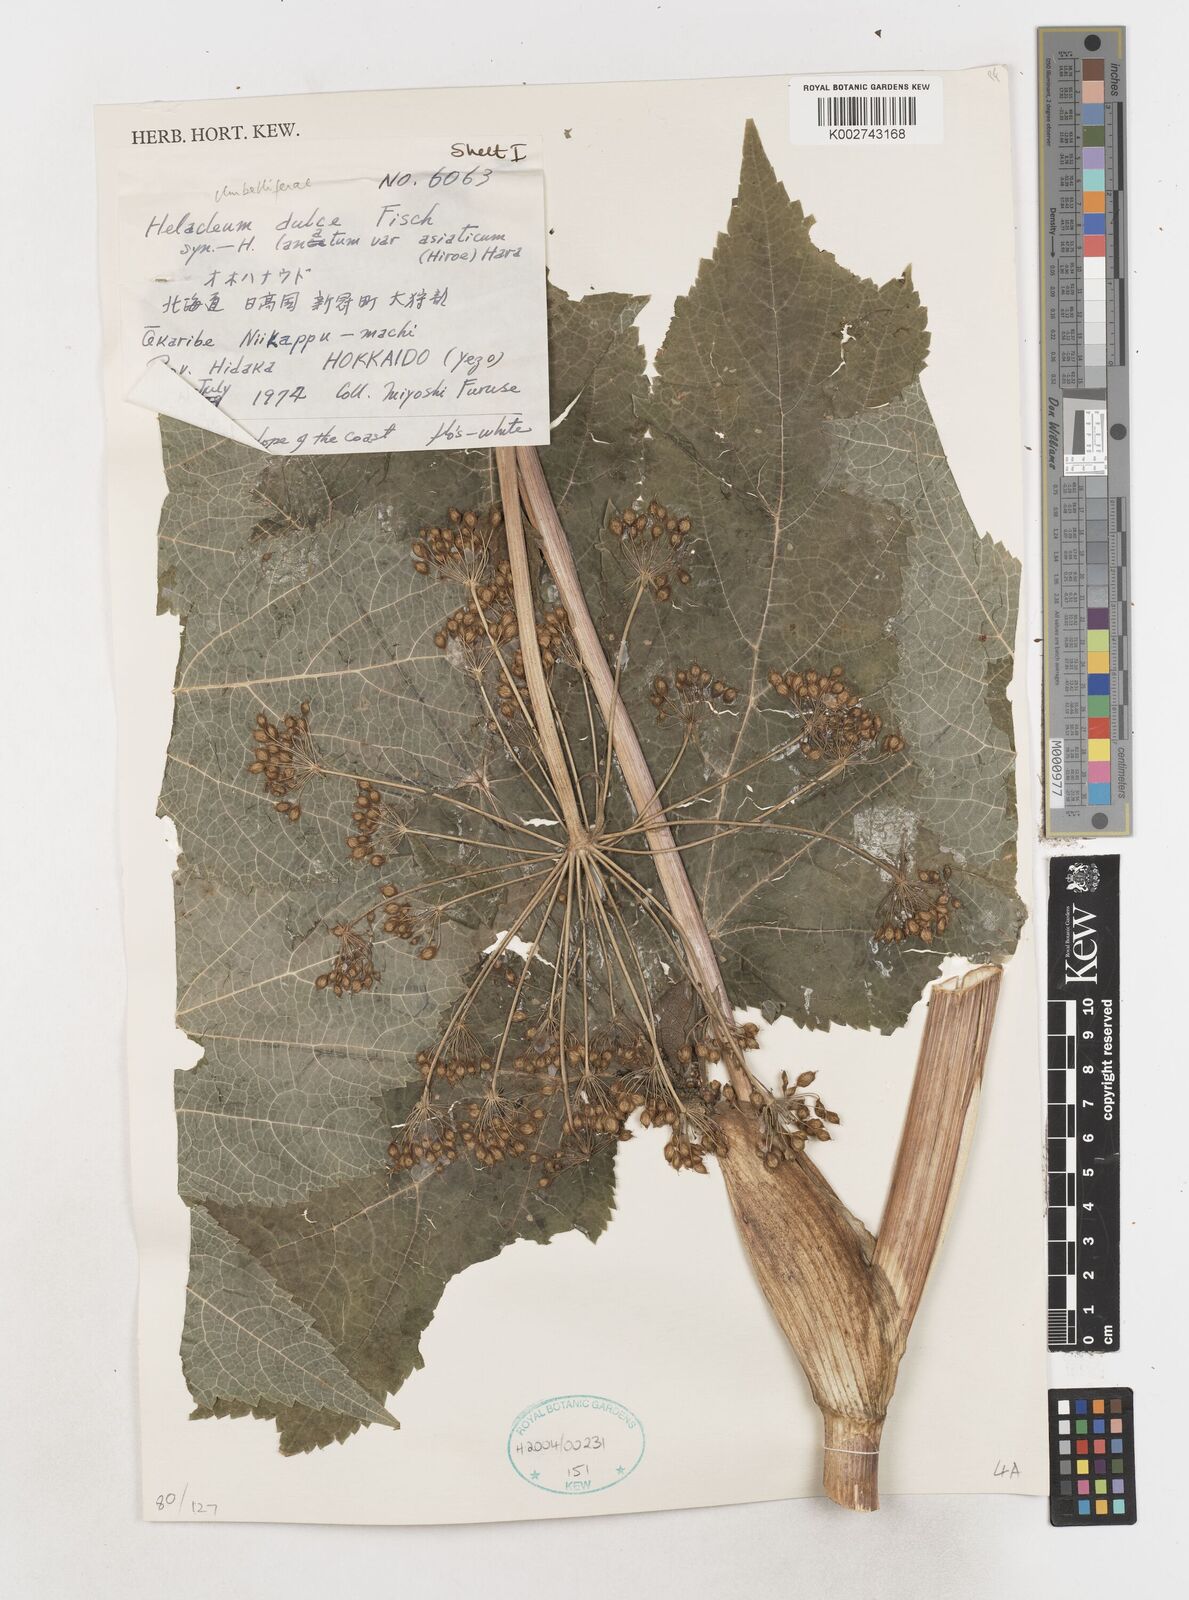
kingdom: Plantae
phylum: Tracheophyta
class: Magnoliopsida
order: Apiales
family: Apiaceae
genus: Heracleum
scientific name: Heracleum maximum
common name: American cow parsnip
